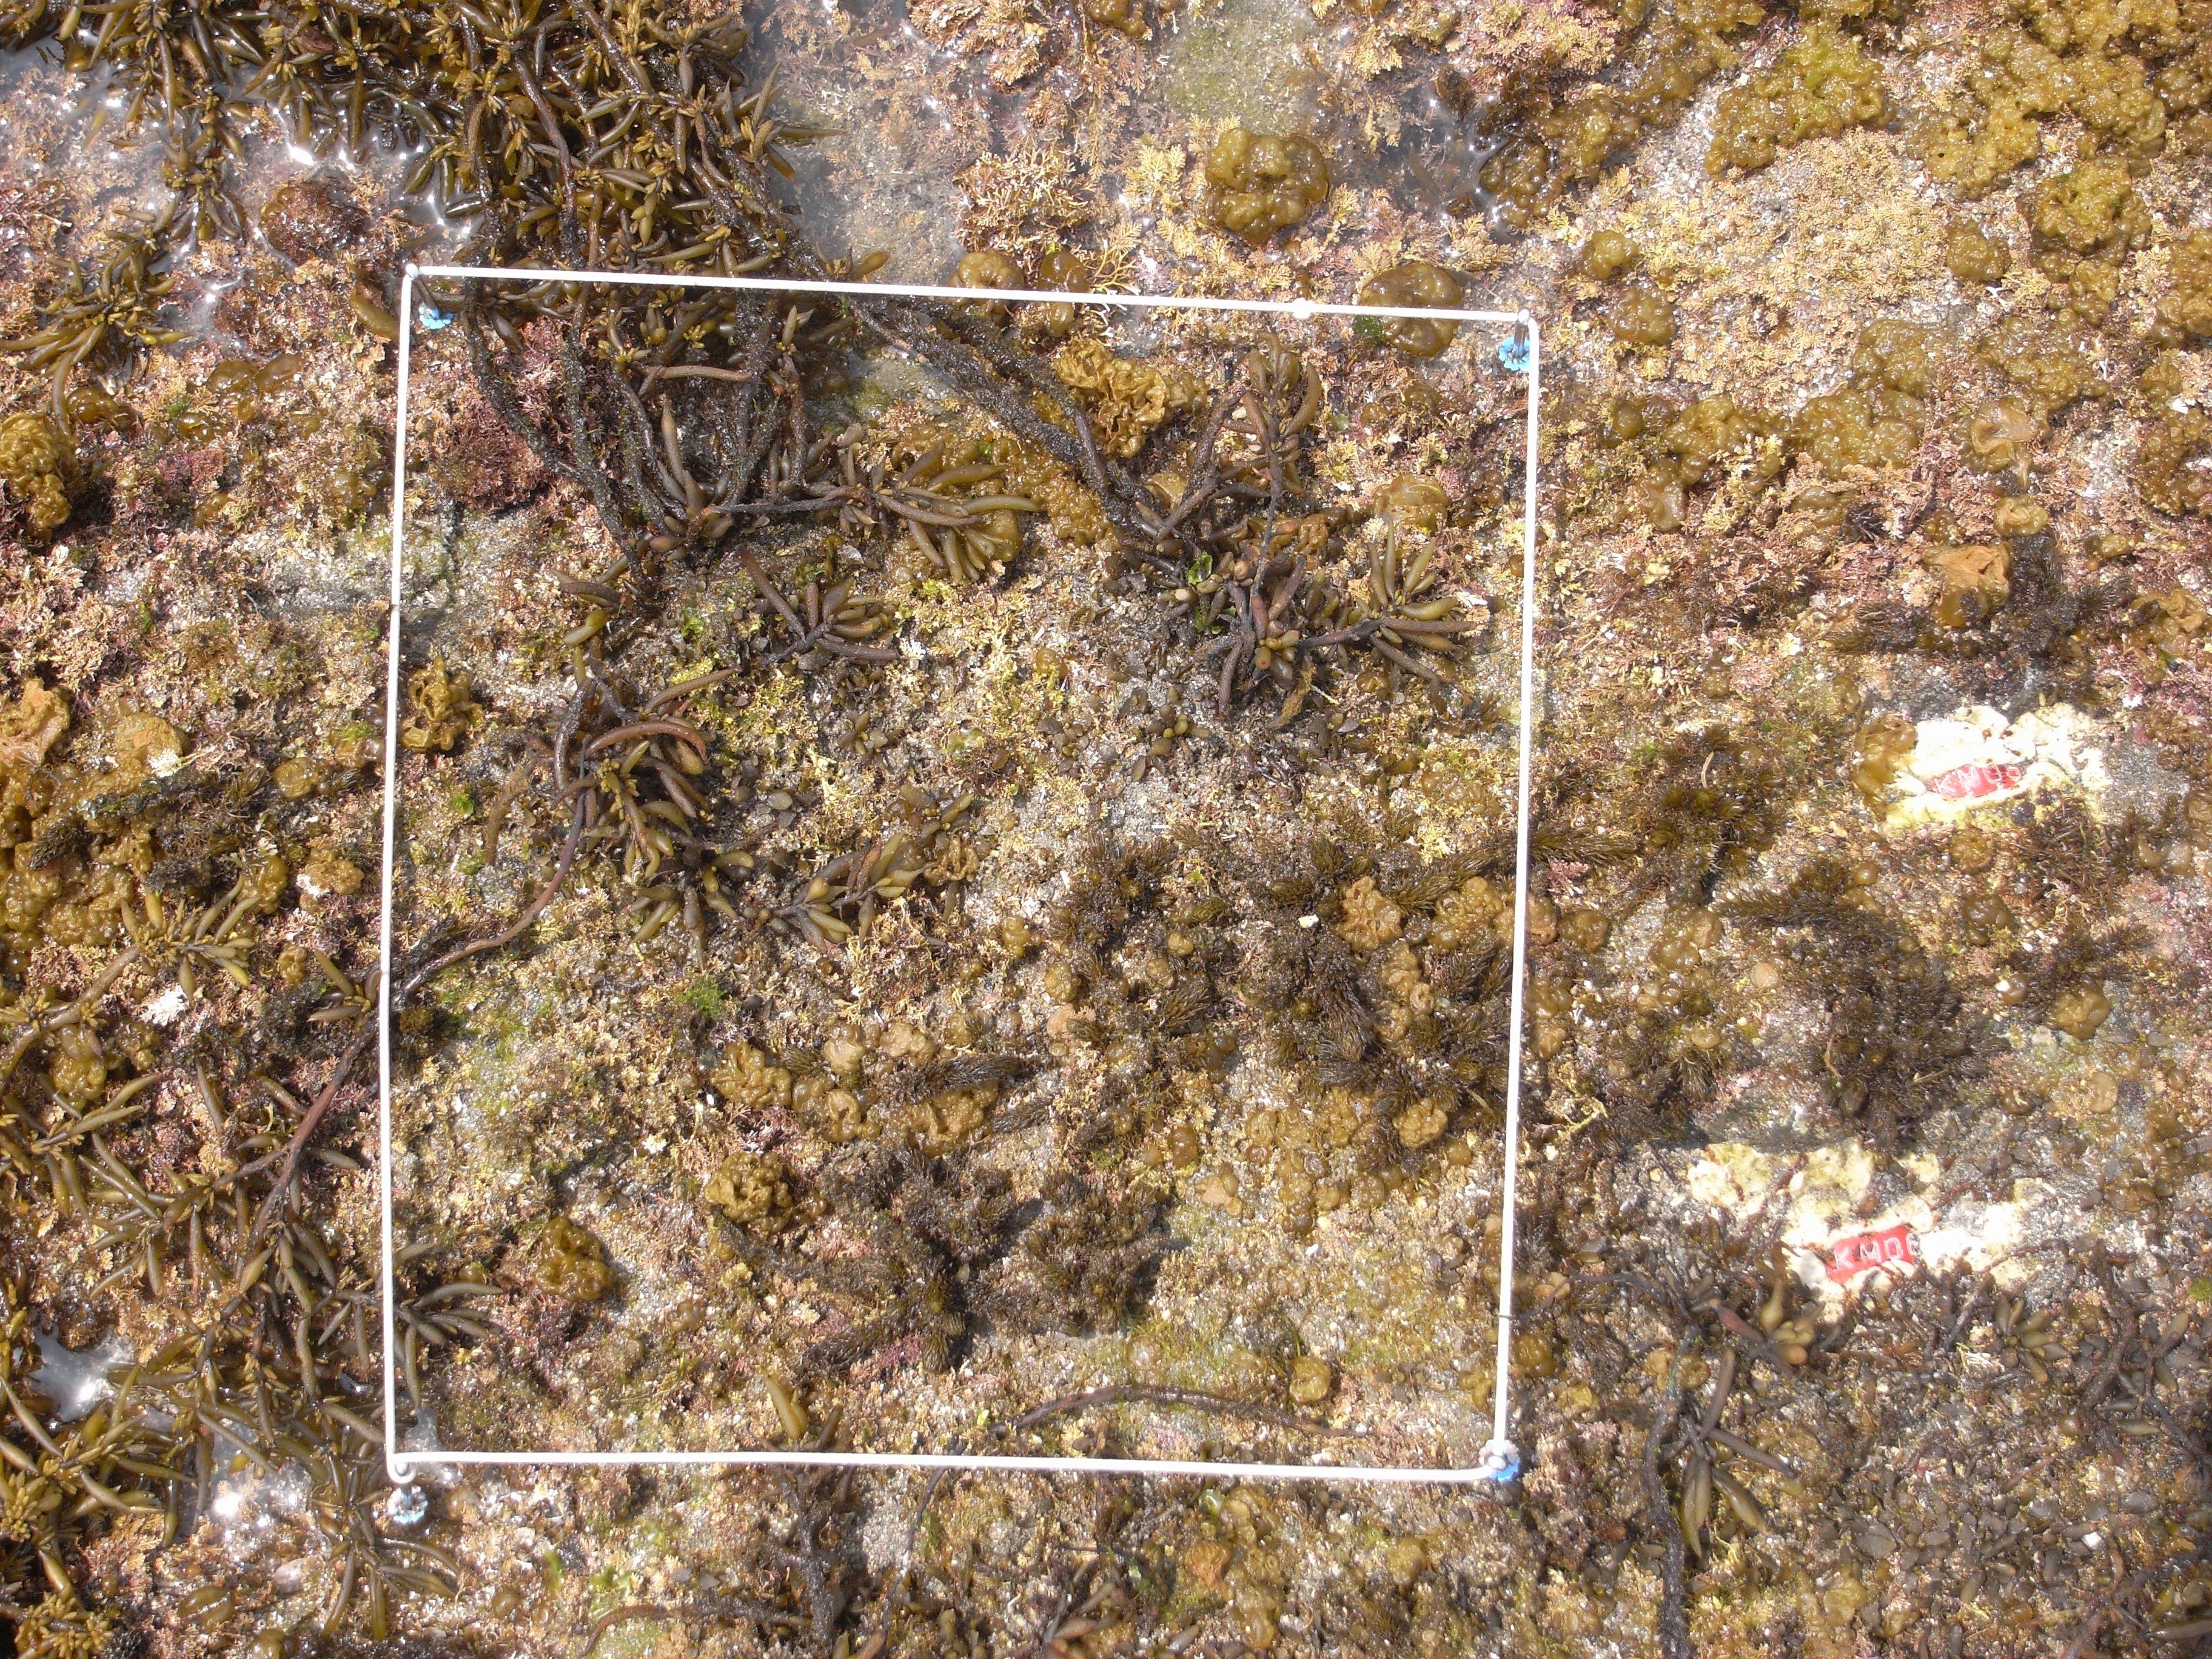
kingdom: Chromista
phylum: Ochrophyta
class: Phaeophyceae
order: Fucales
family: Sargassaceae
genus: Sargassum
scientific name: Sargassum fusiforme
